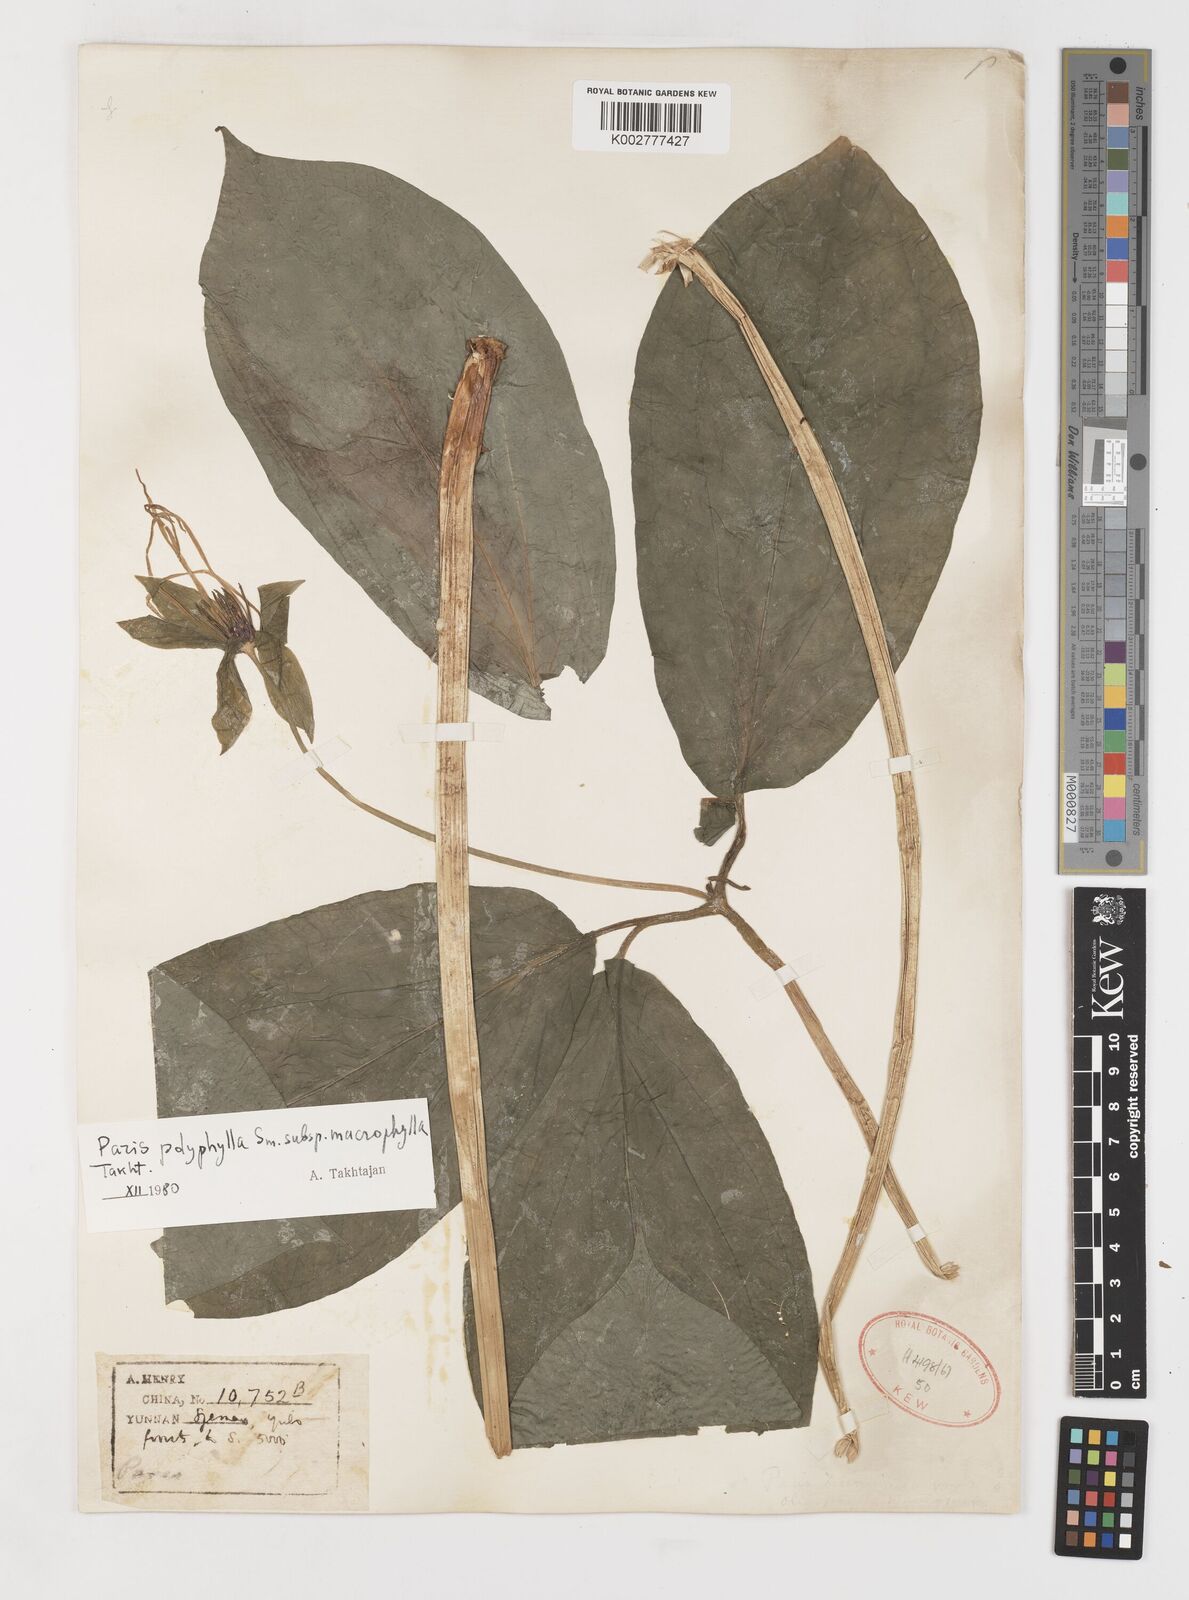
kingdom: Plantae
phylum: Tracheophyta
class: Liliopsida
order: Liliales
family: Melanthiaceae
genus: Paris
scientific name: Paris chinensis
